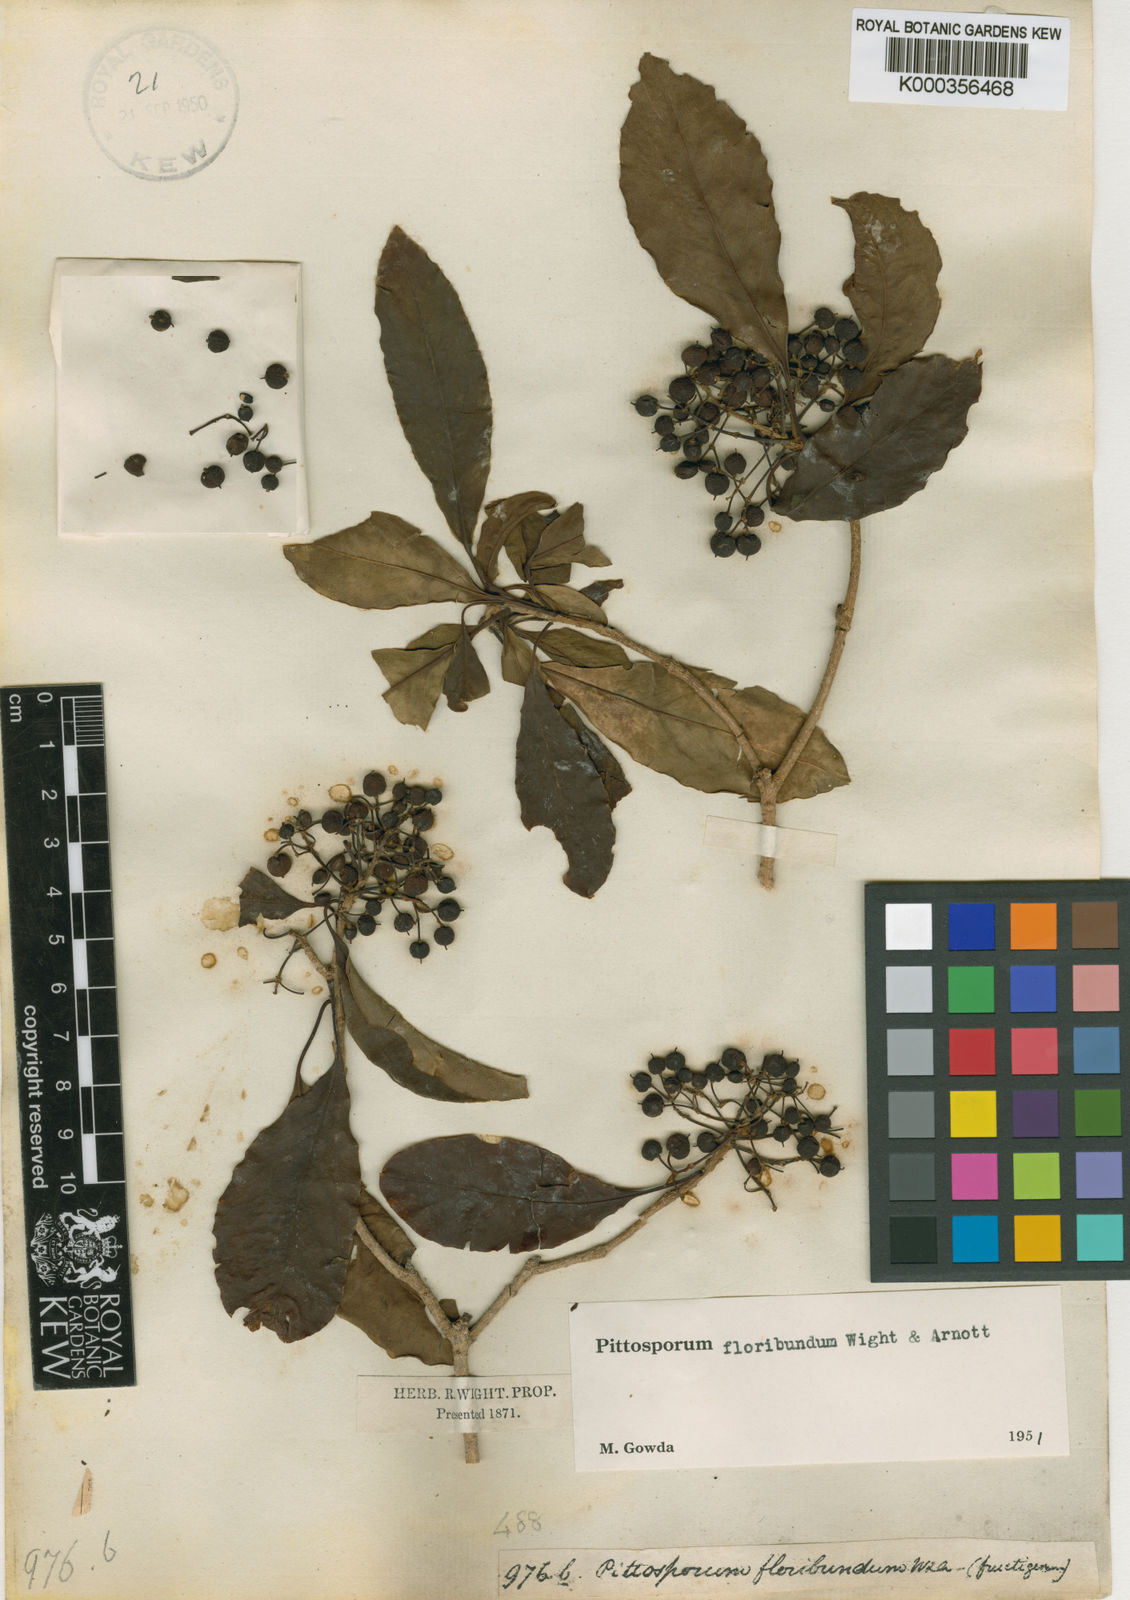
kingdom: Plantae
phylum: Tracheophyta
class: Magnoliopsida
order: Apiales
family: Pittosporaceae
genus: Pittosporum
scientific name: Pittosporum densiflorum
